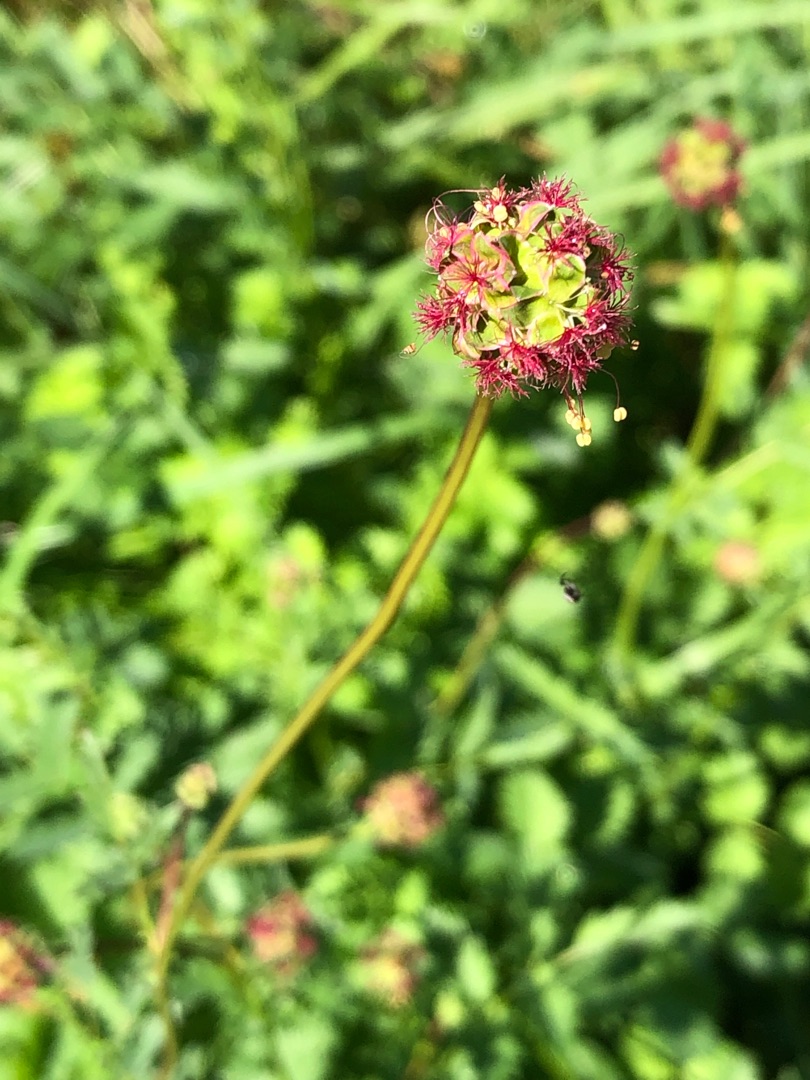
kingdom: Plantae
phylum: Tracheophyta
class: Magnoliopsida
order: Rosales
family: Rosaceae
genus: Poterium
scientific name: Poterium sanguisorba
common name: Bibernelle
